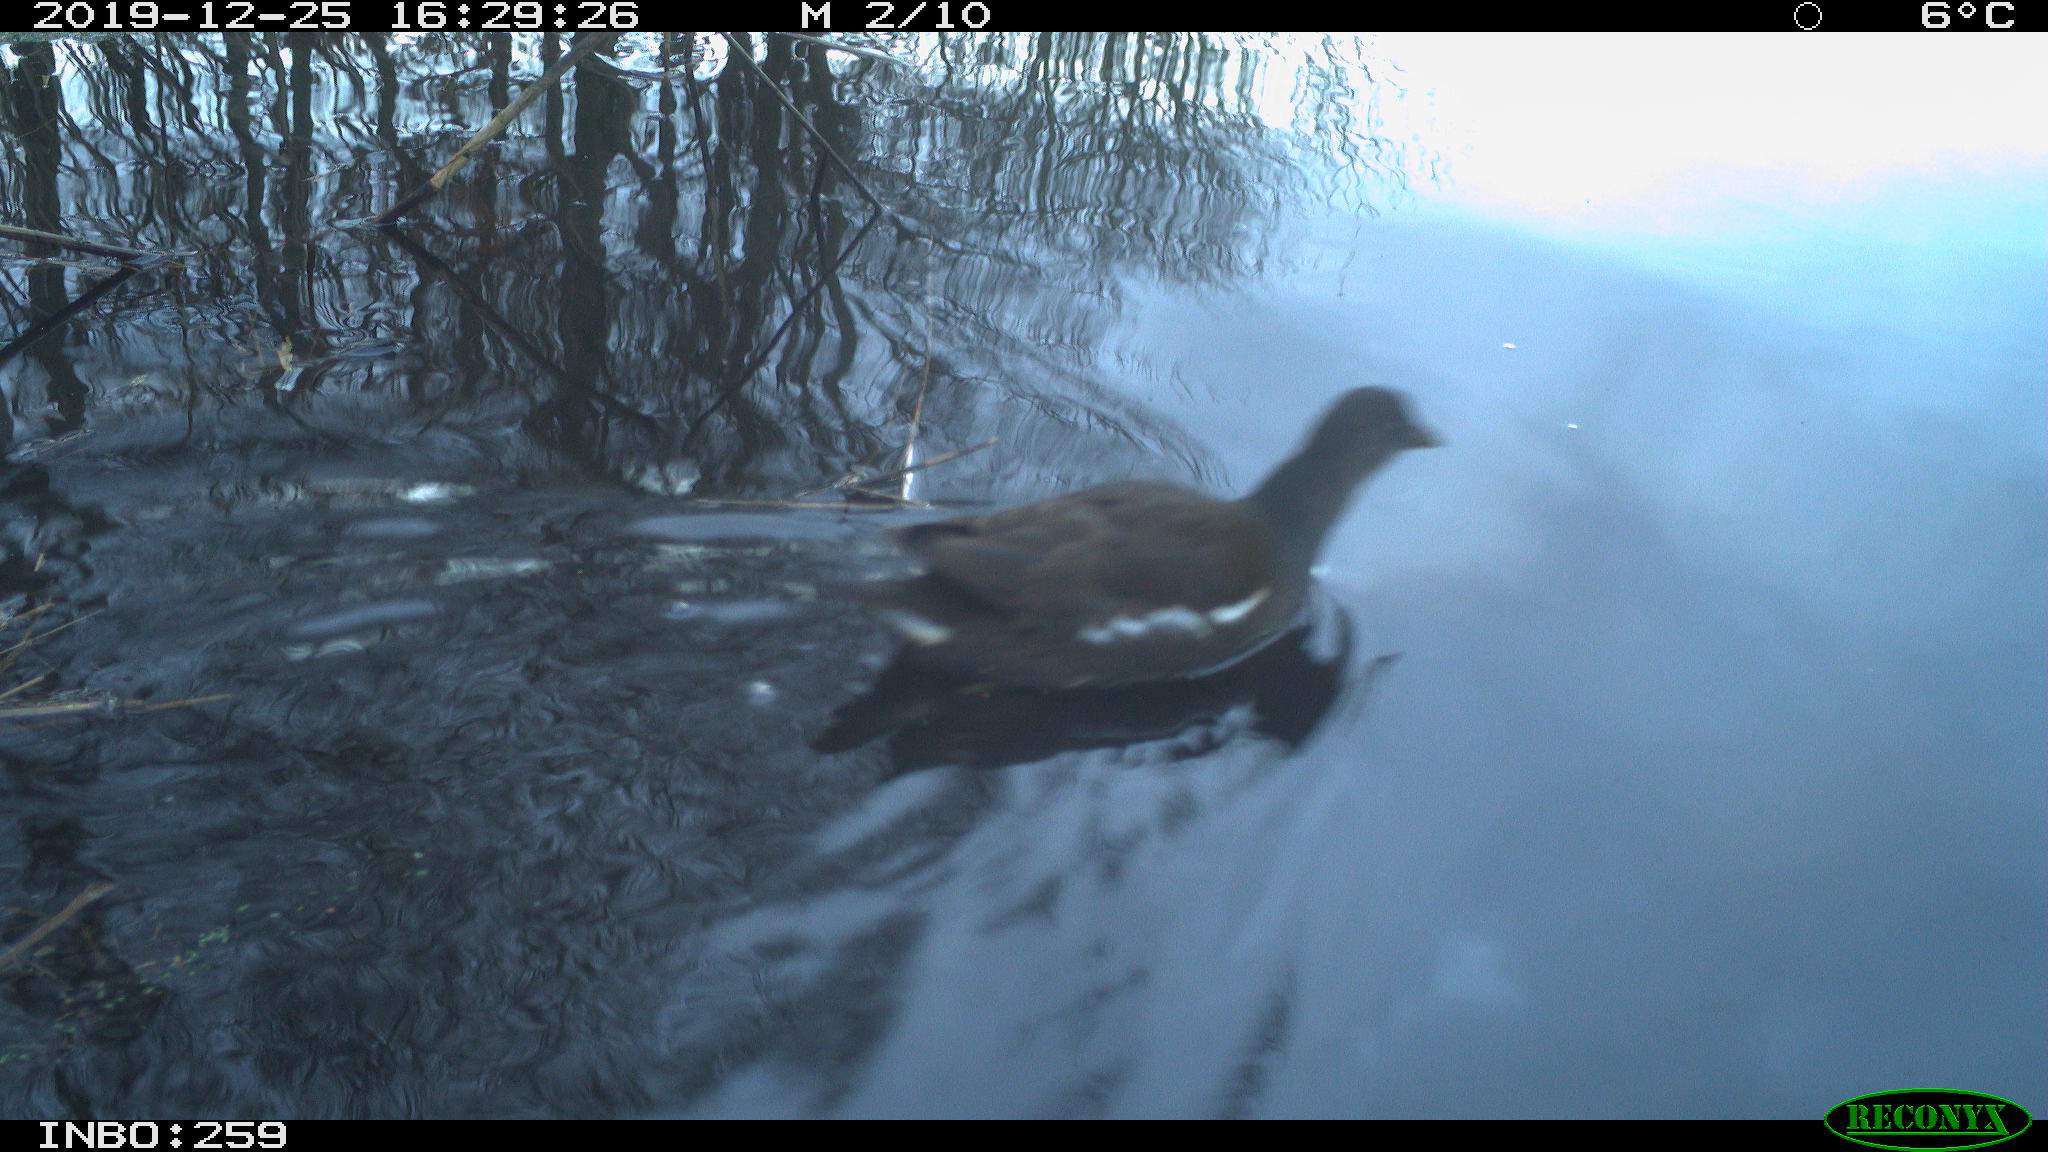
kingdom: Animalia
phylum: Chordata
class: Aves
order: Gruiformes
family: Rallidae
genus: Gallinula
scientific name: Gallinula chloropus
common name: Common moorhen
